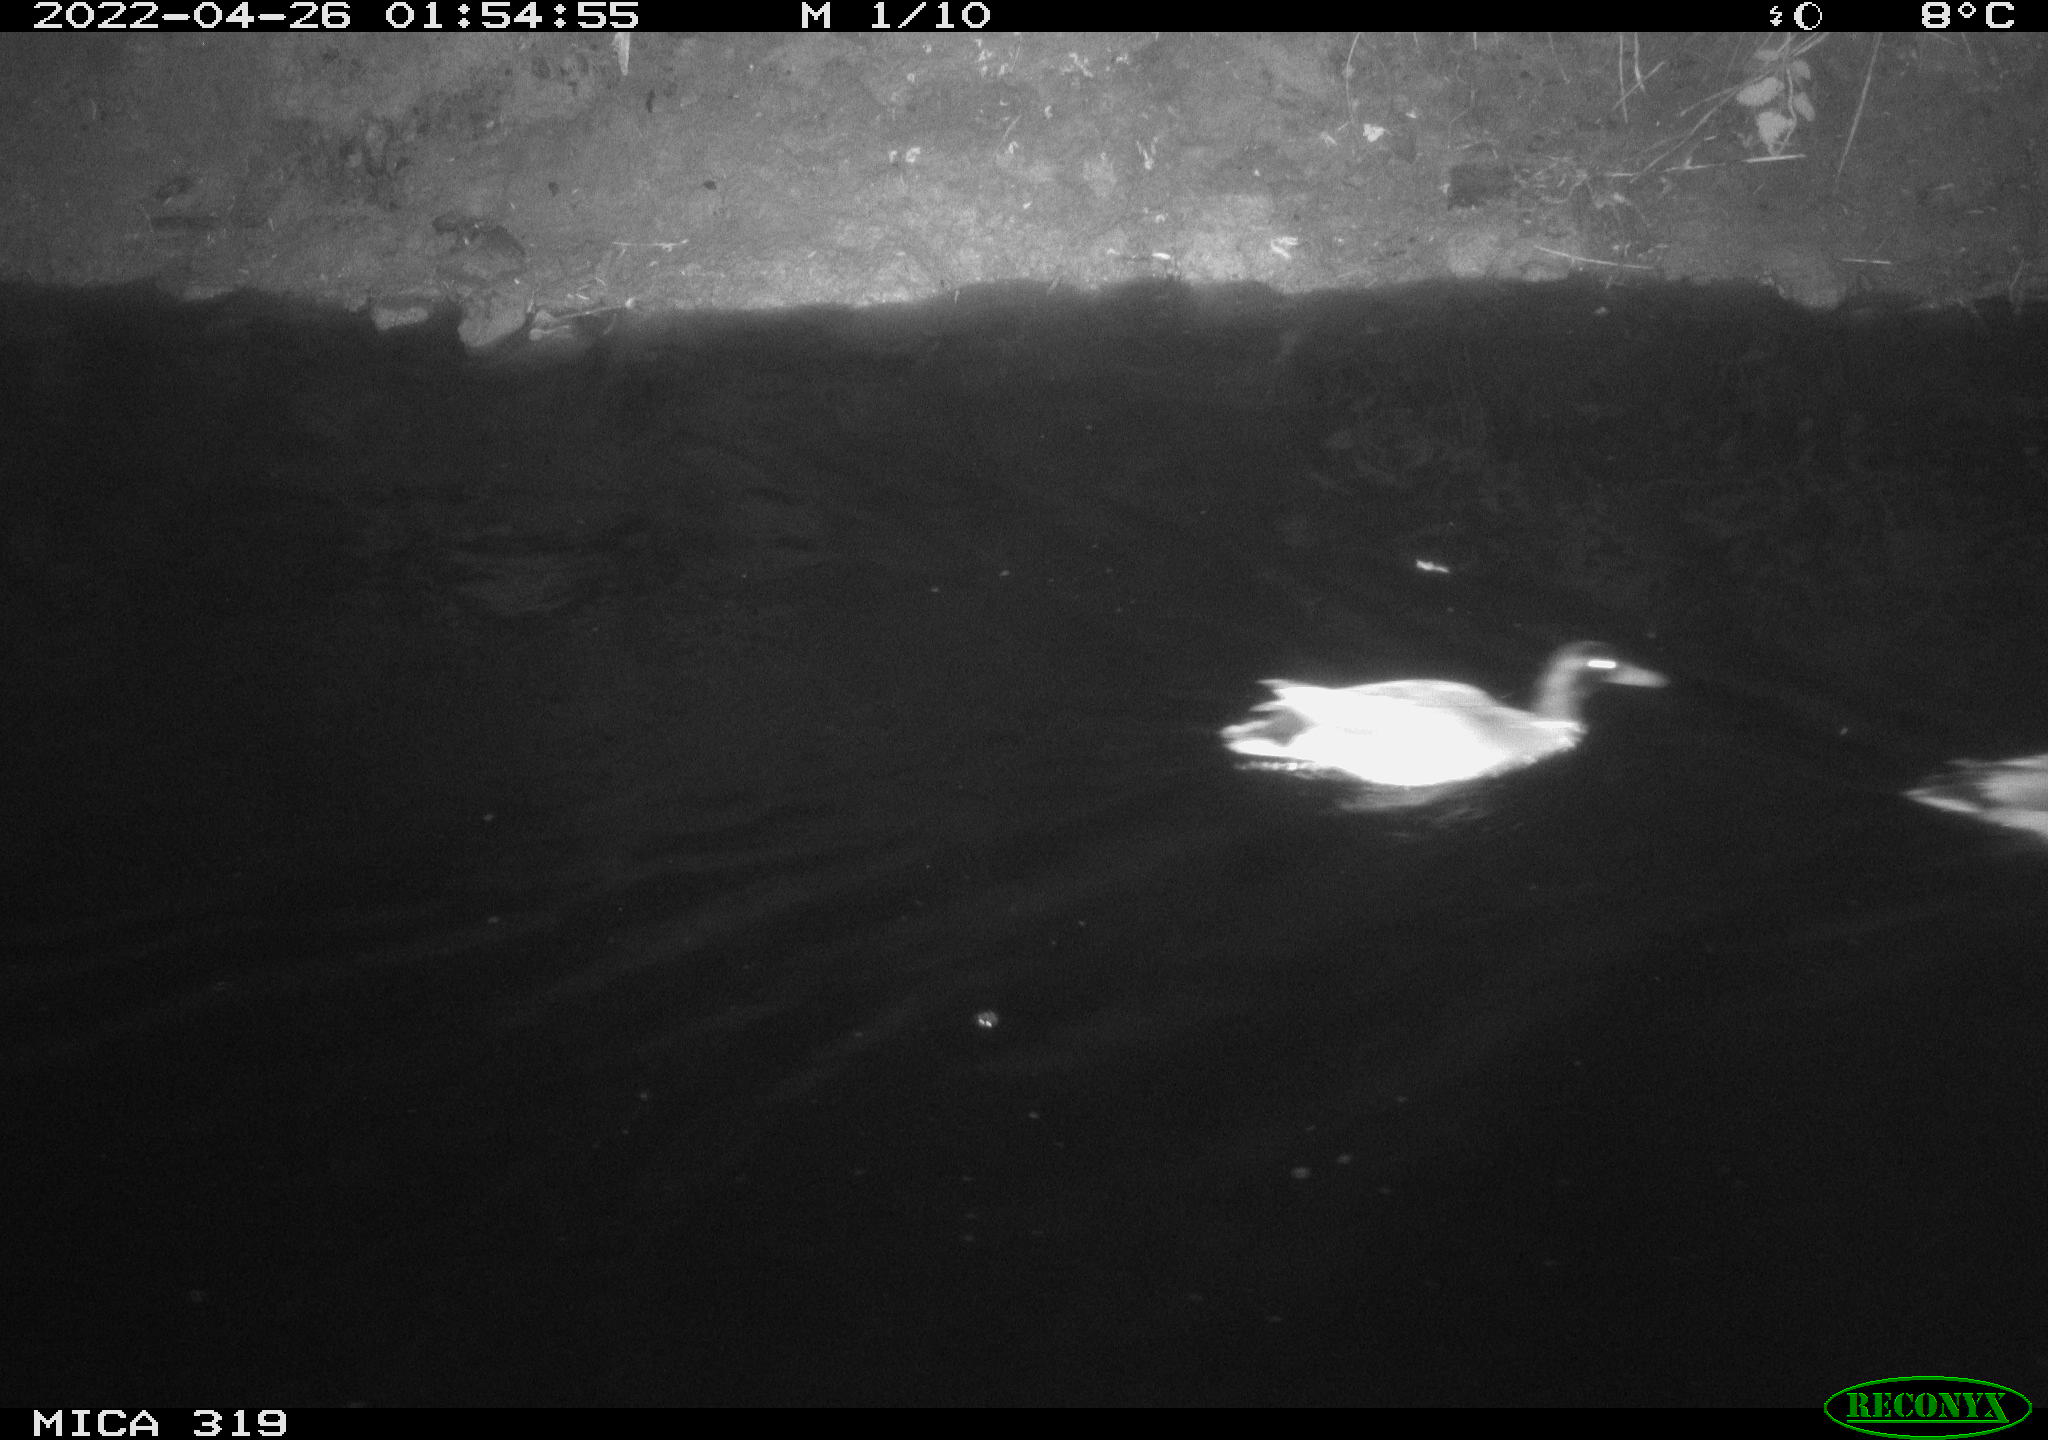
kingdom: Animalia
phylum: Chordata
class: Aves
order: Anseriformes
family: Anatidae
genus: Anas
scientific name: Anas platyrhynchos
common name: Mallard
